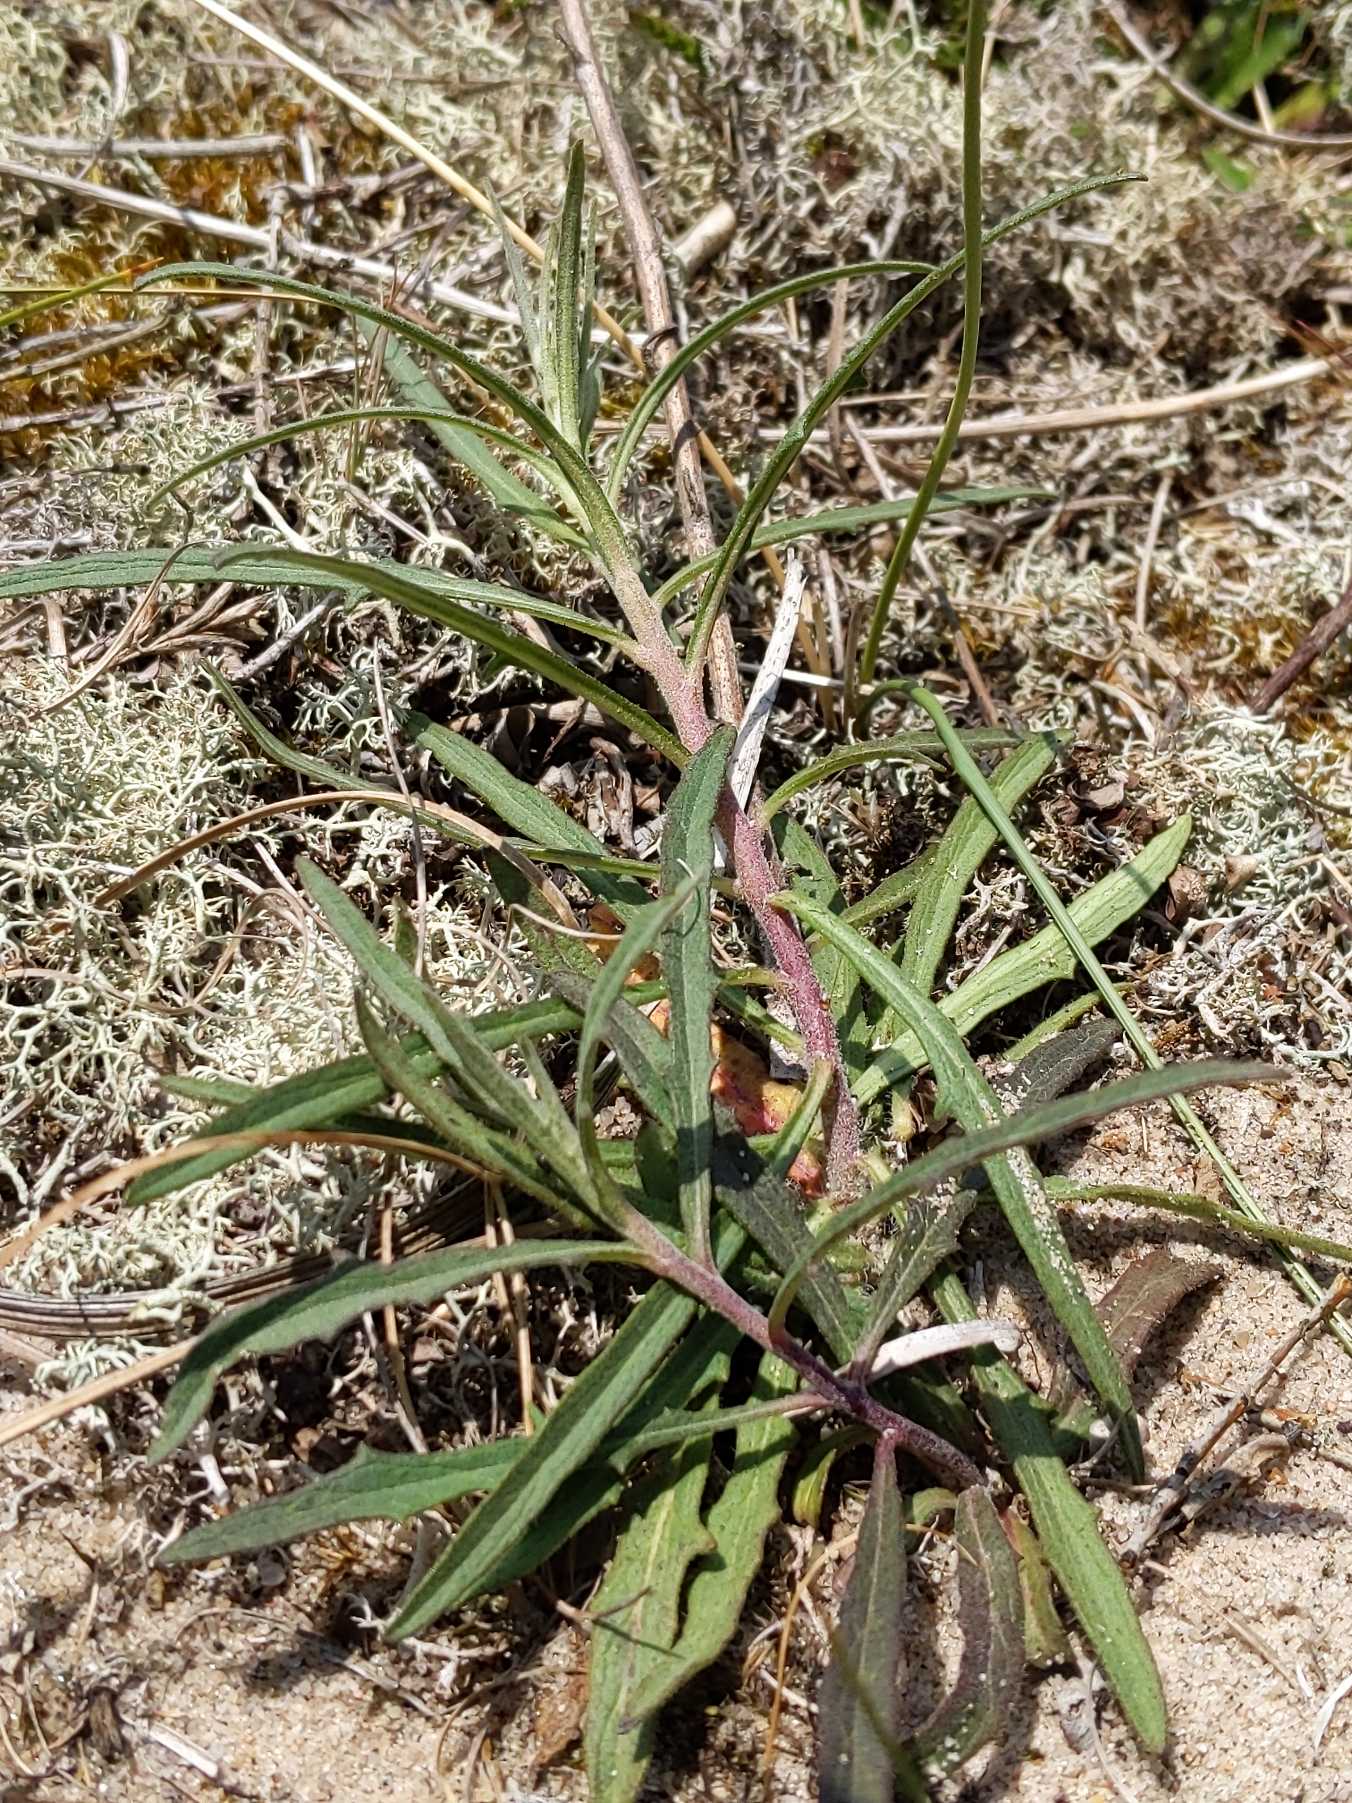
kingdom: Plantae
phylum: Tracheophyta
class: Magnoliopsida
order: Asterales
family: Asteraceae
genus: Hieracioides
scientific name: Hieracioides
